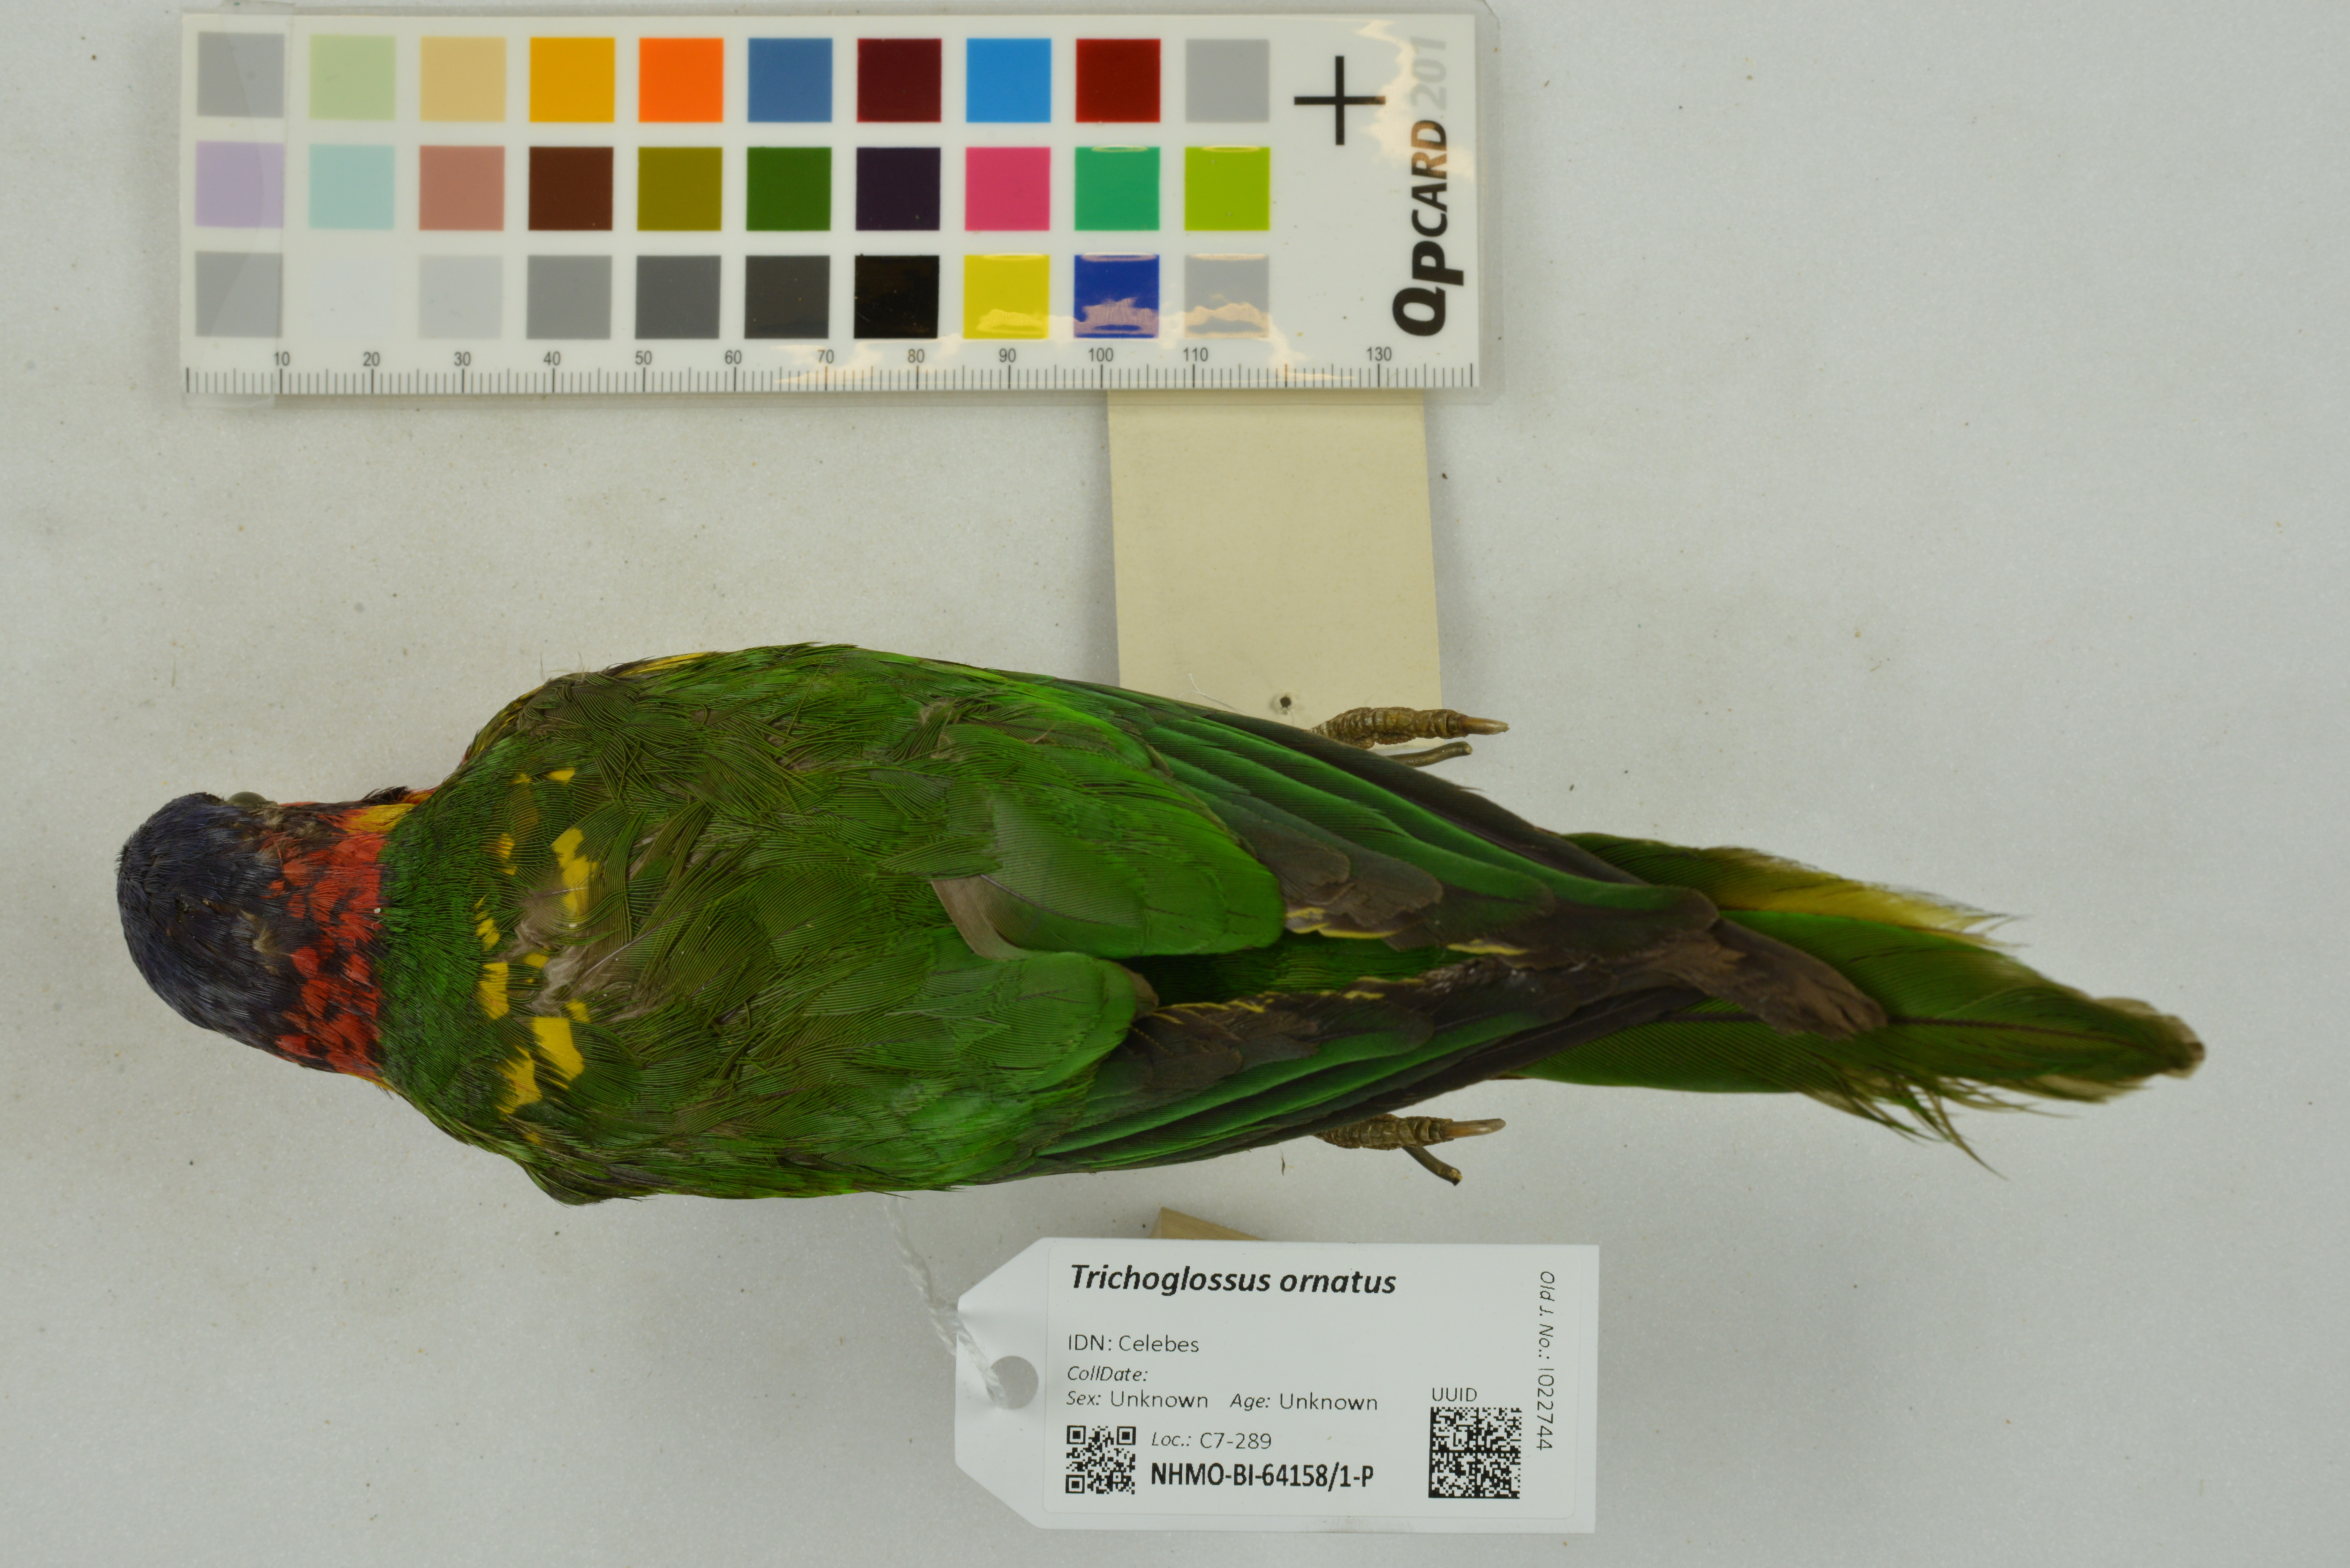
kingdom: Animalia
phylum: Chordata
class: Aves
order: Psittaciformes
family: Psittaculidae
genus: Saudareos
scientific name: Saudareos ornata
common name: Ornate lorikeet
